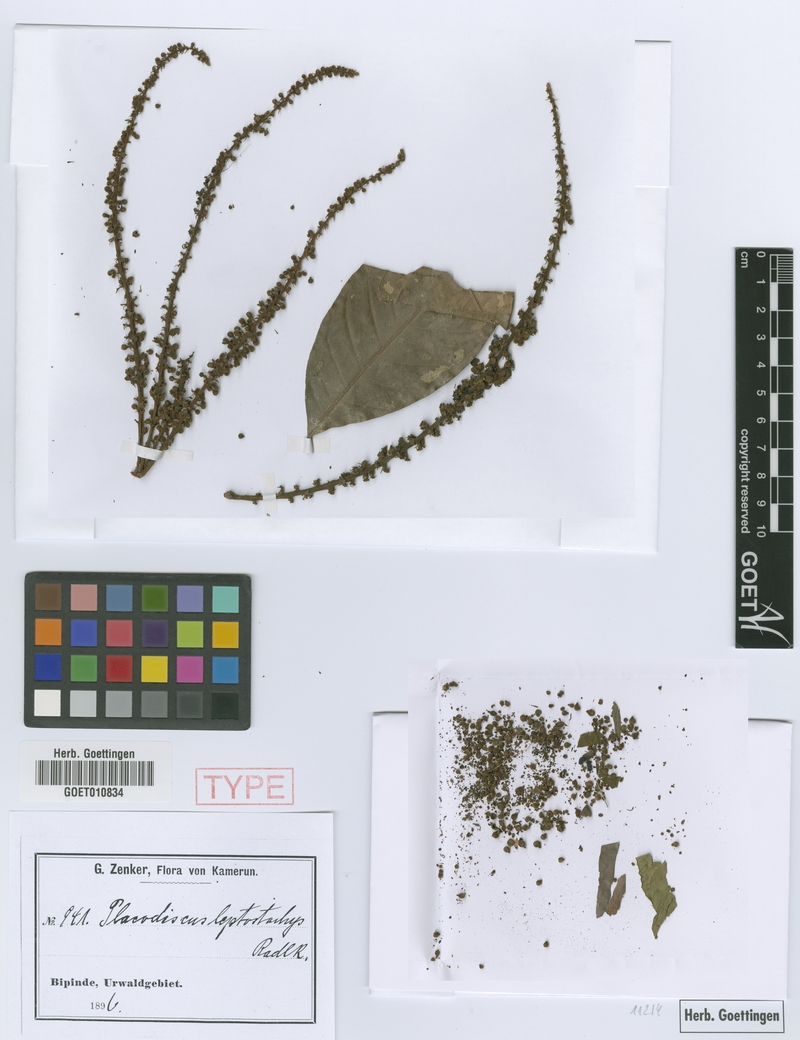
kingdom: Plantae
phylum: Tracheophyta
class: Magnoliopsida
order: Sapindales
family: Sapindaceae
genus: Placodiscus
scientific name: Placodiscus glandulosus
